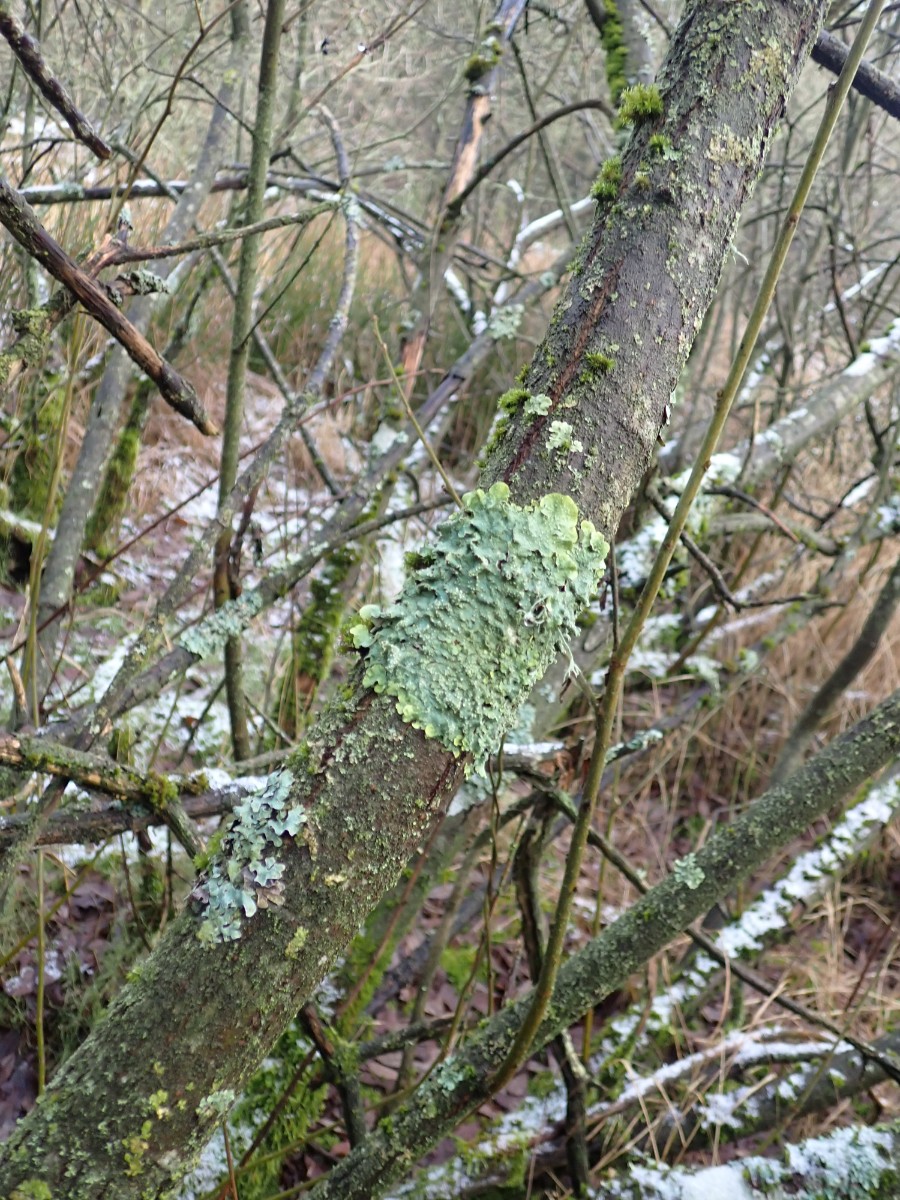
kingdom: Fungi
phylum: Ascomycota
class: Lecanoromycetes
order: Lecanorales
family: Parmeliaceae
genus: Punctelia
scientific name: Punctelia subrudecta
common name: punkt-skållav
